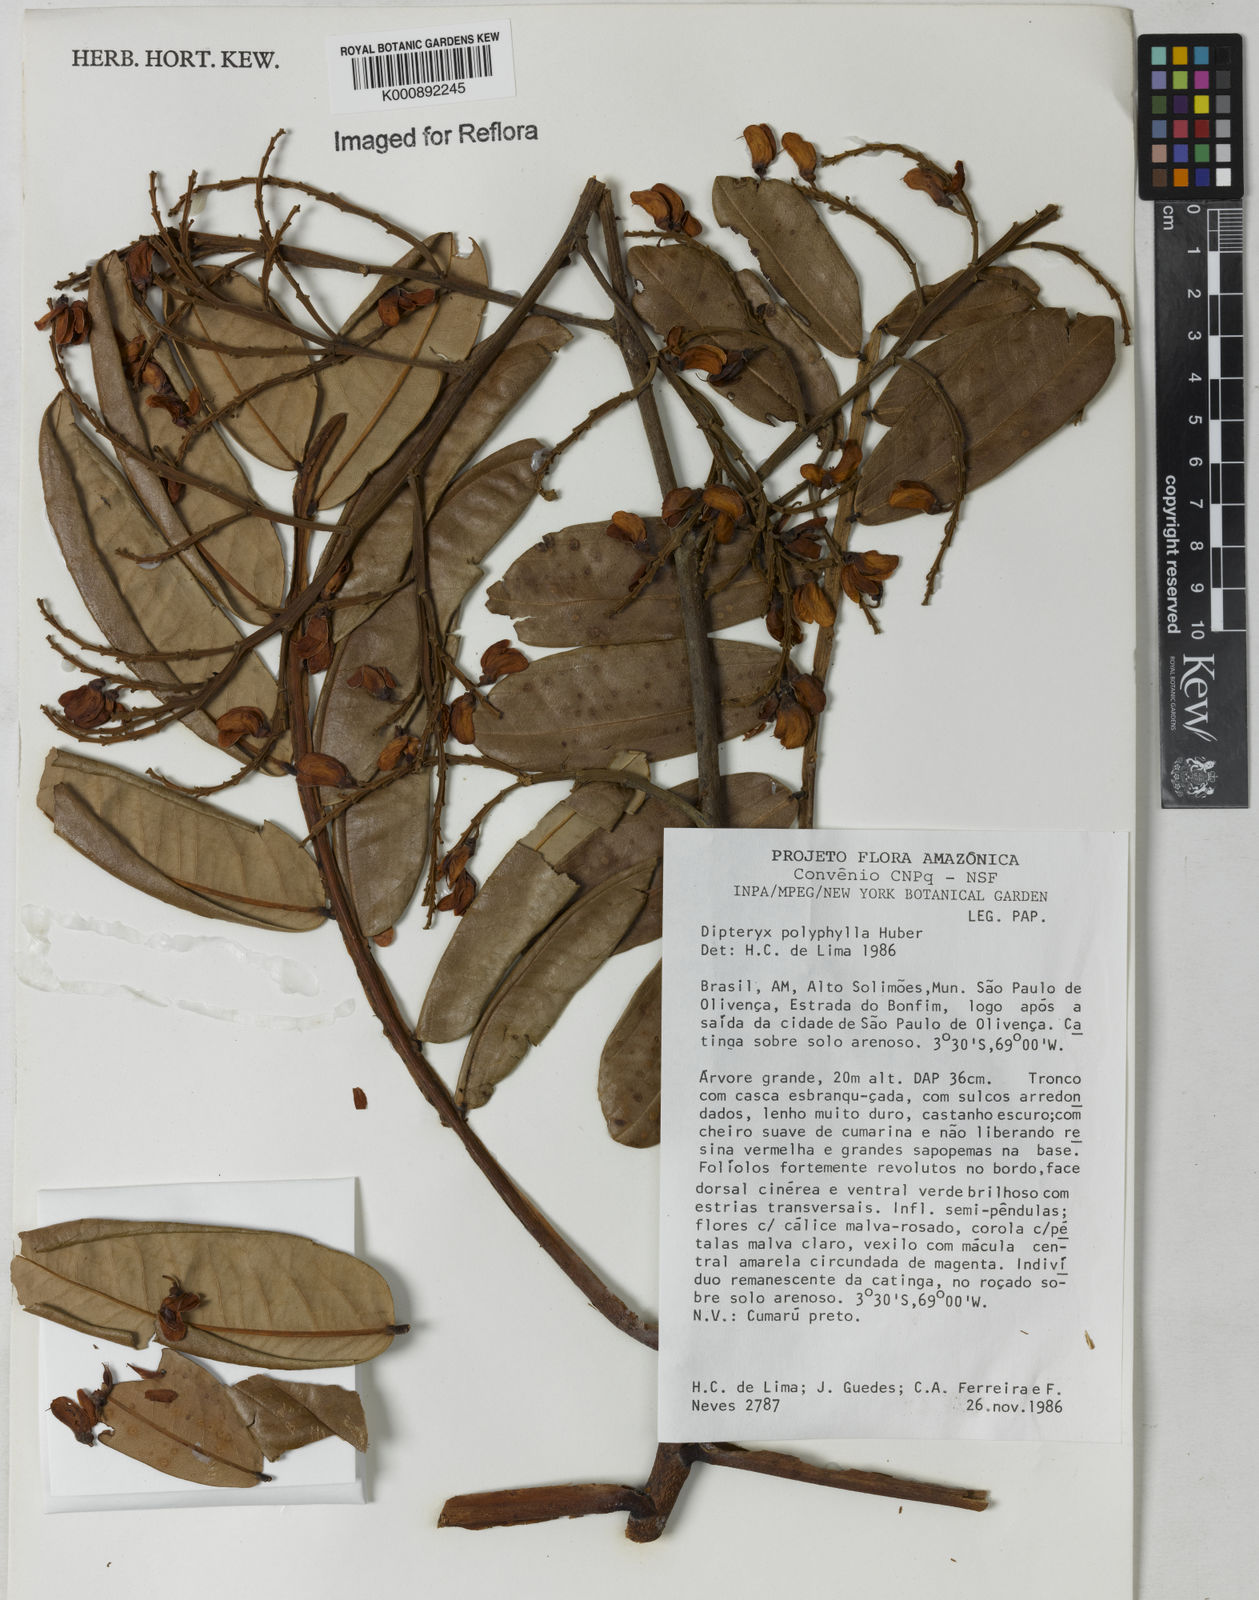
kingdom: Plantae
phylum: Tracheophyta
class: Magnoliopsida
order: Fabales
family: Fabaceae
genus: Dipteryx
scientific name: Dipteryx polyphylla
